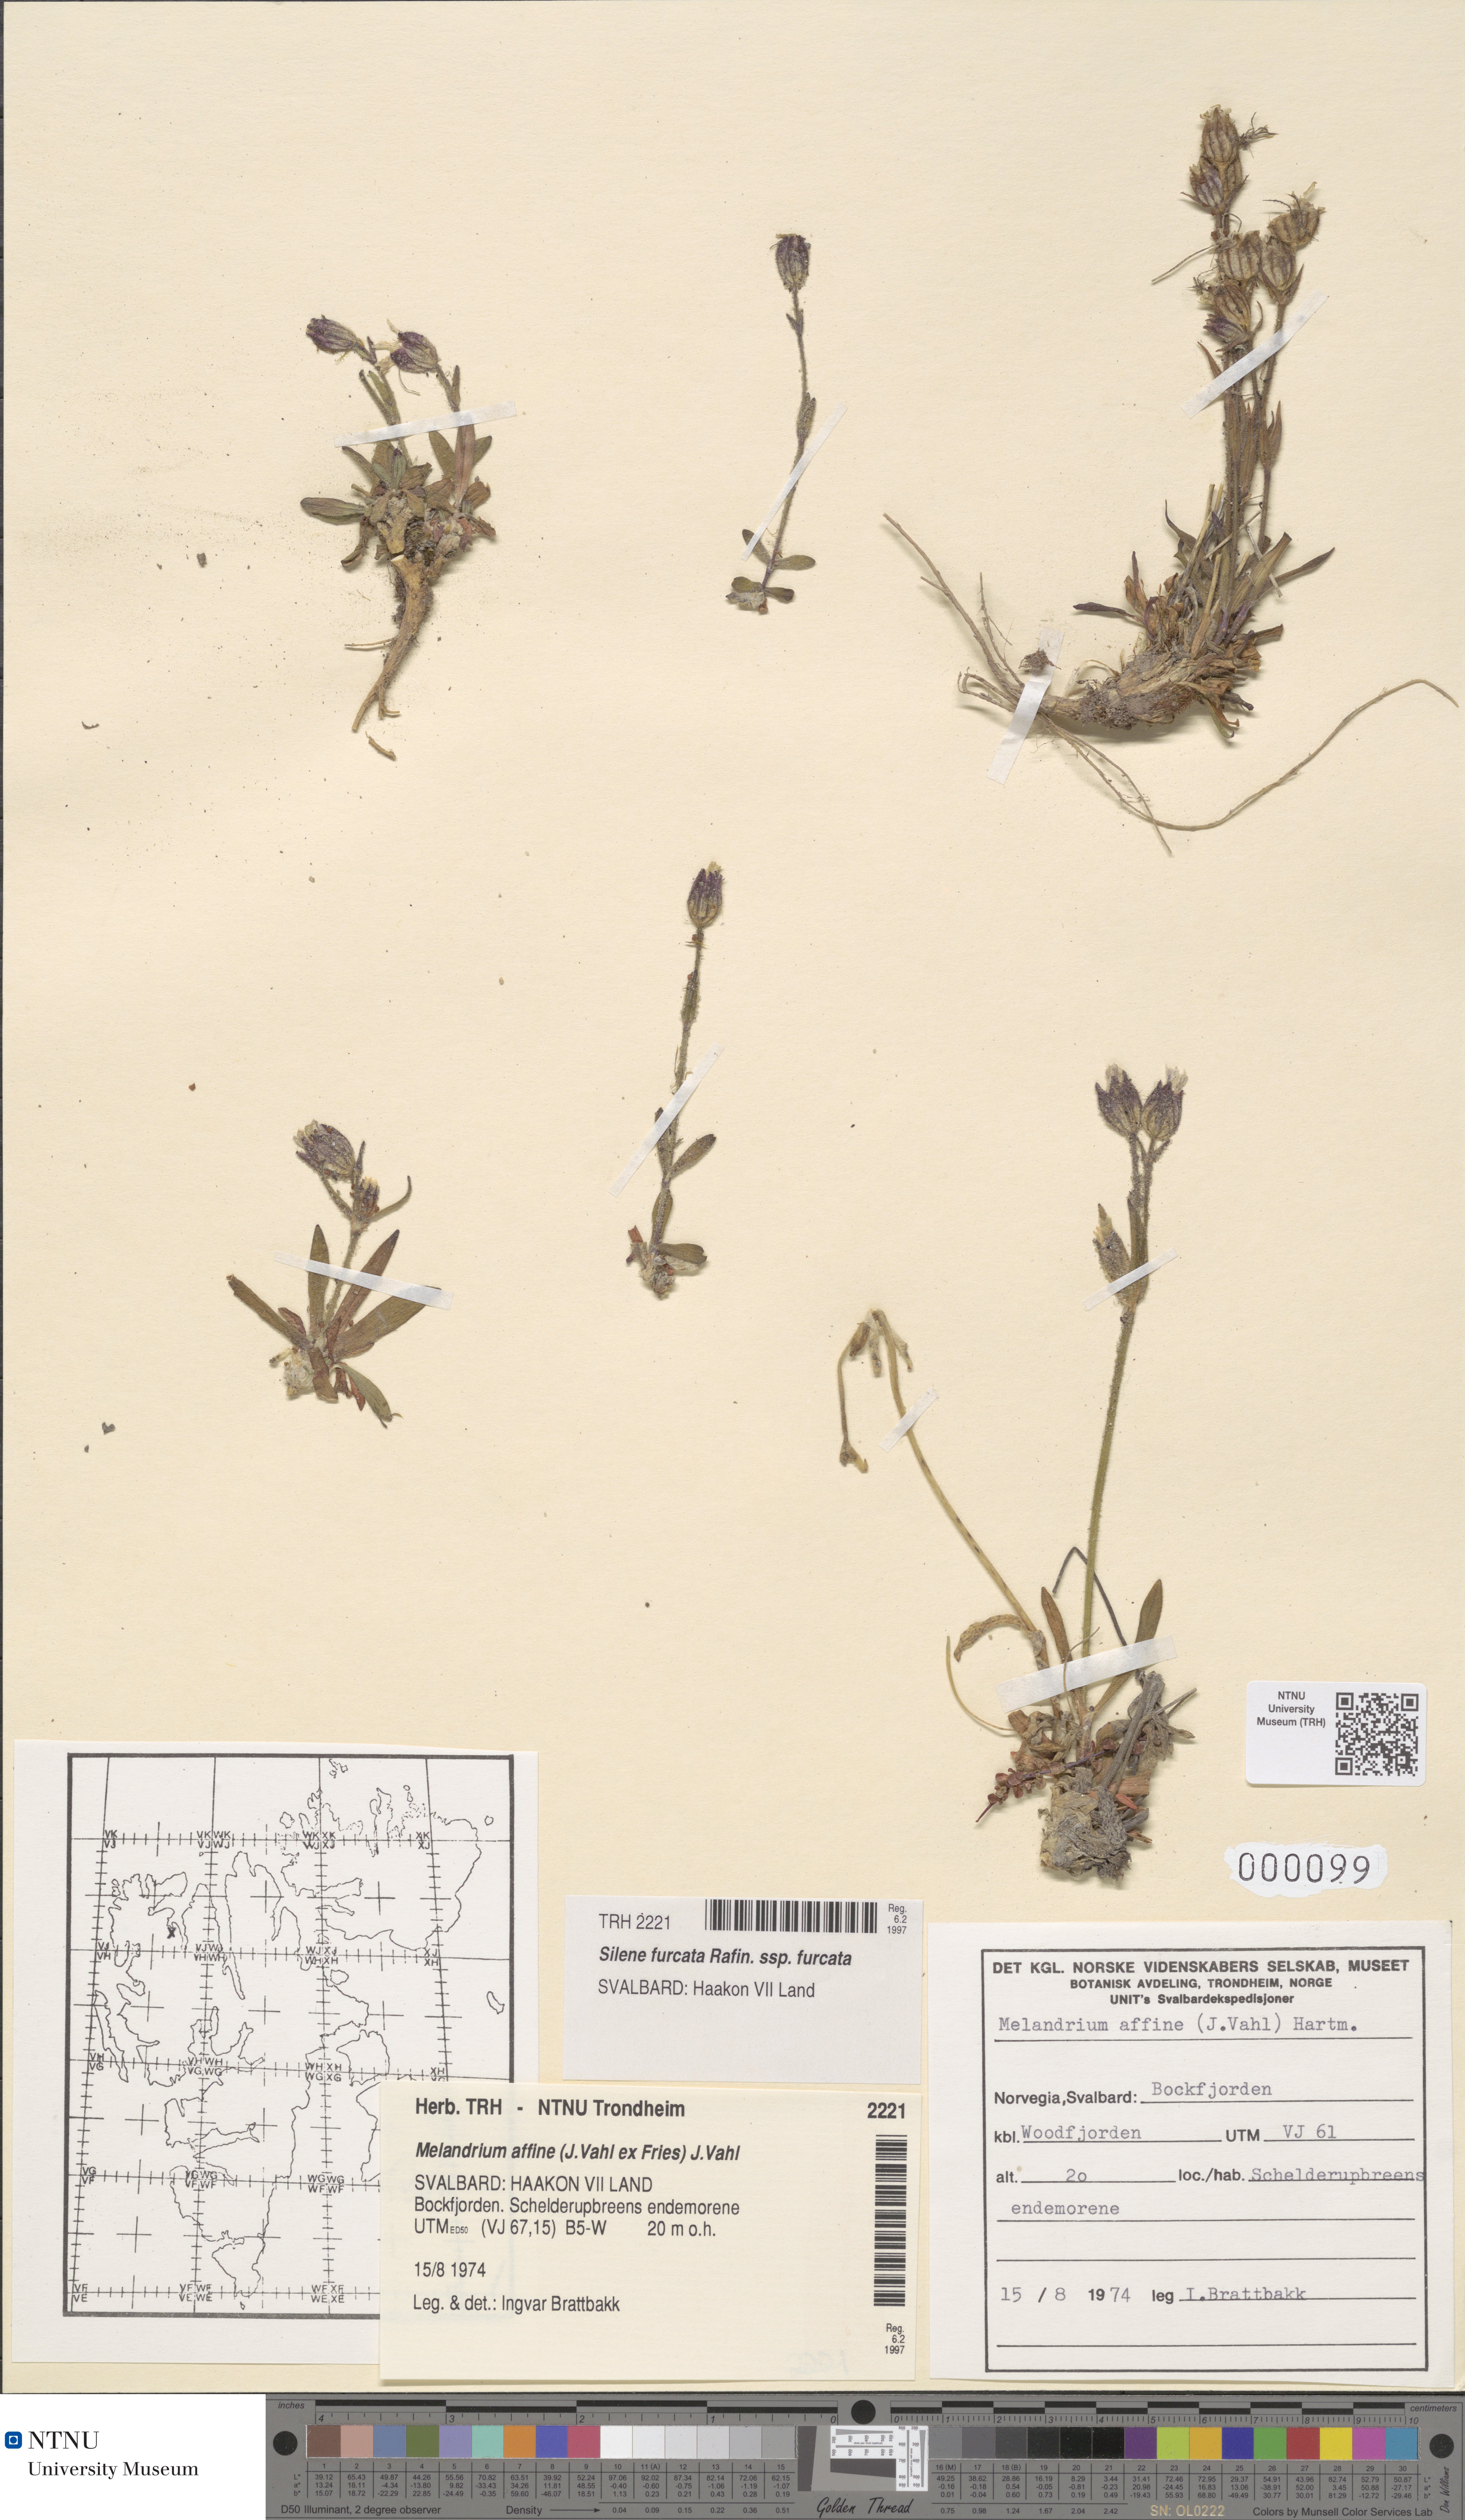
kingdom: Plantae
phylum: Tracheophyta
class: Magnoliopsida
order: Caryophyllales
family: Caryophyllaceae
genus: Silene
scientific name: Silene involucrata
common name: Greater arctic campion
